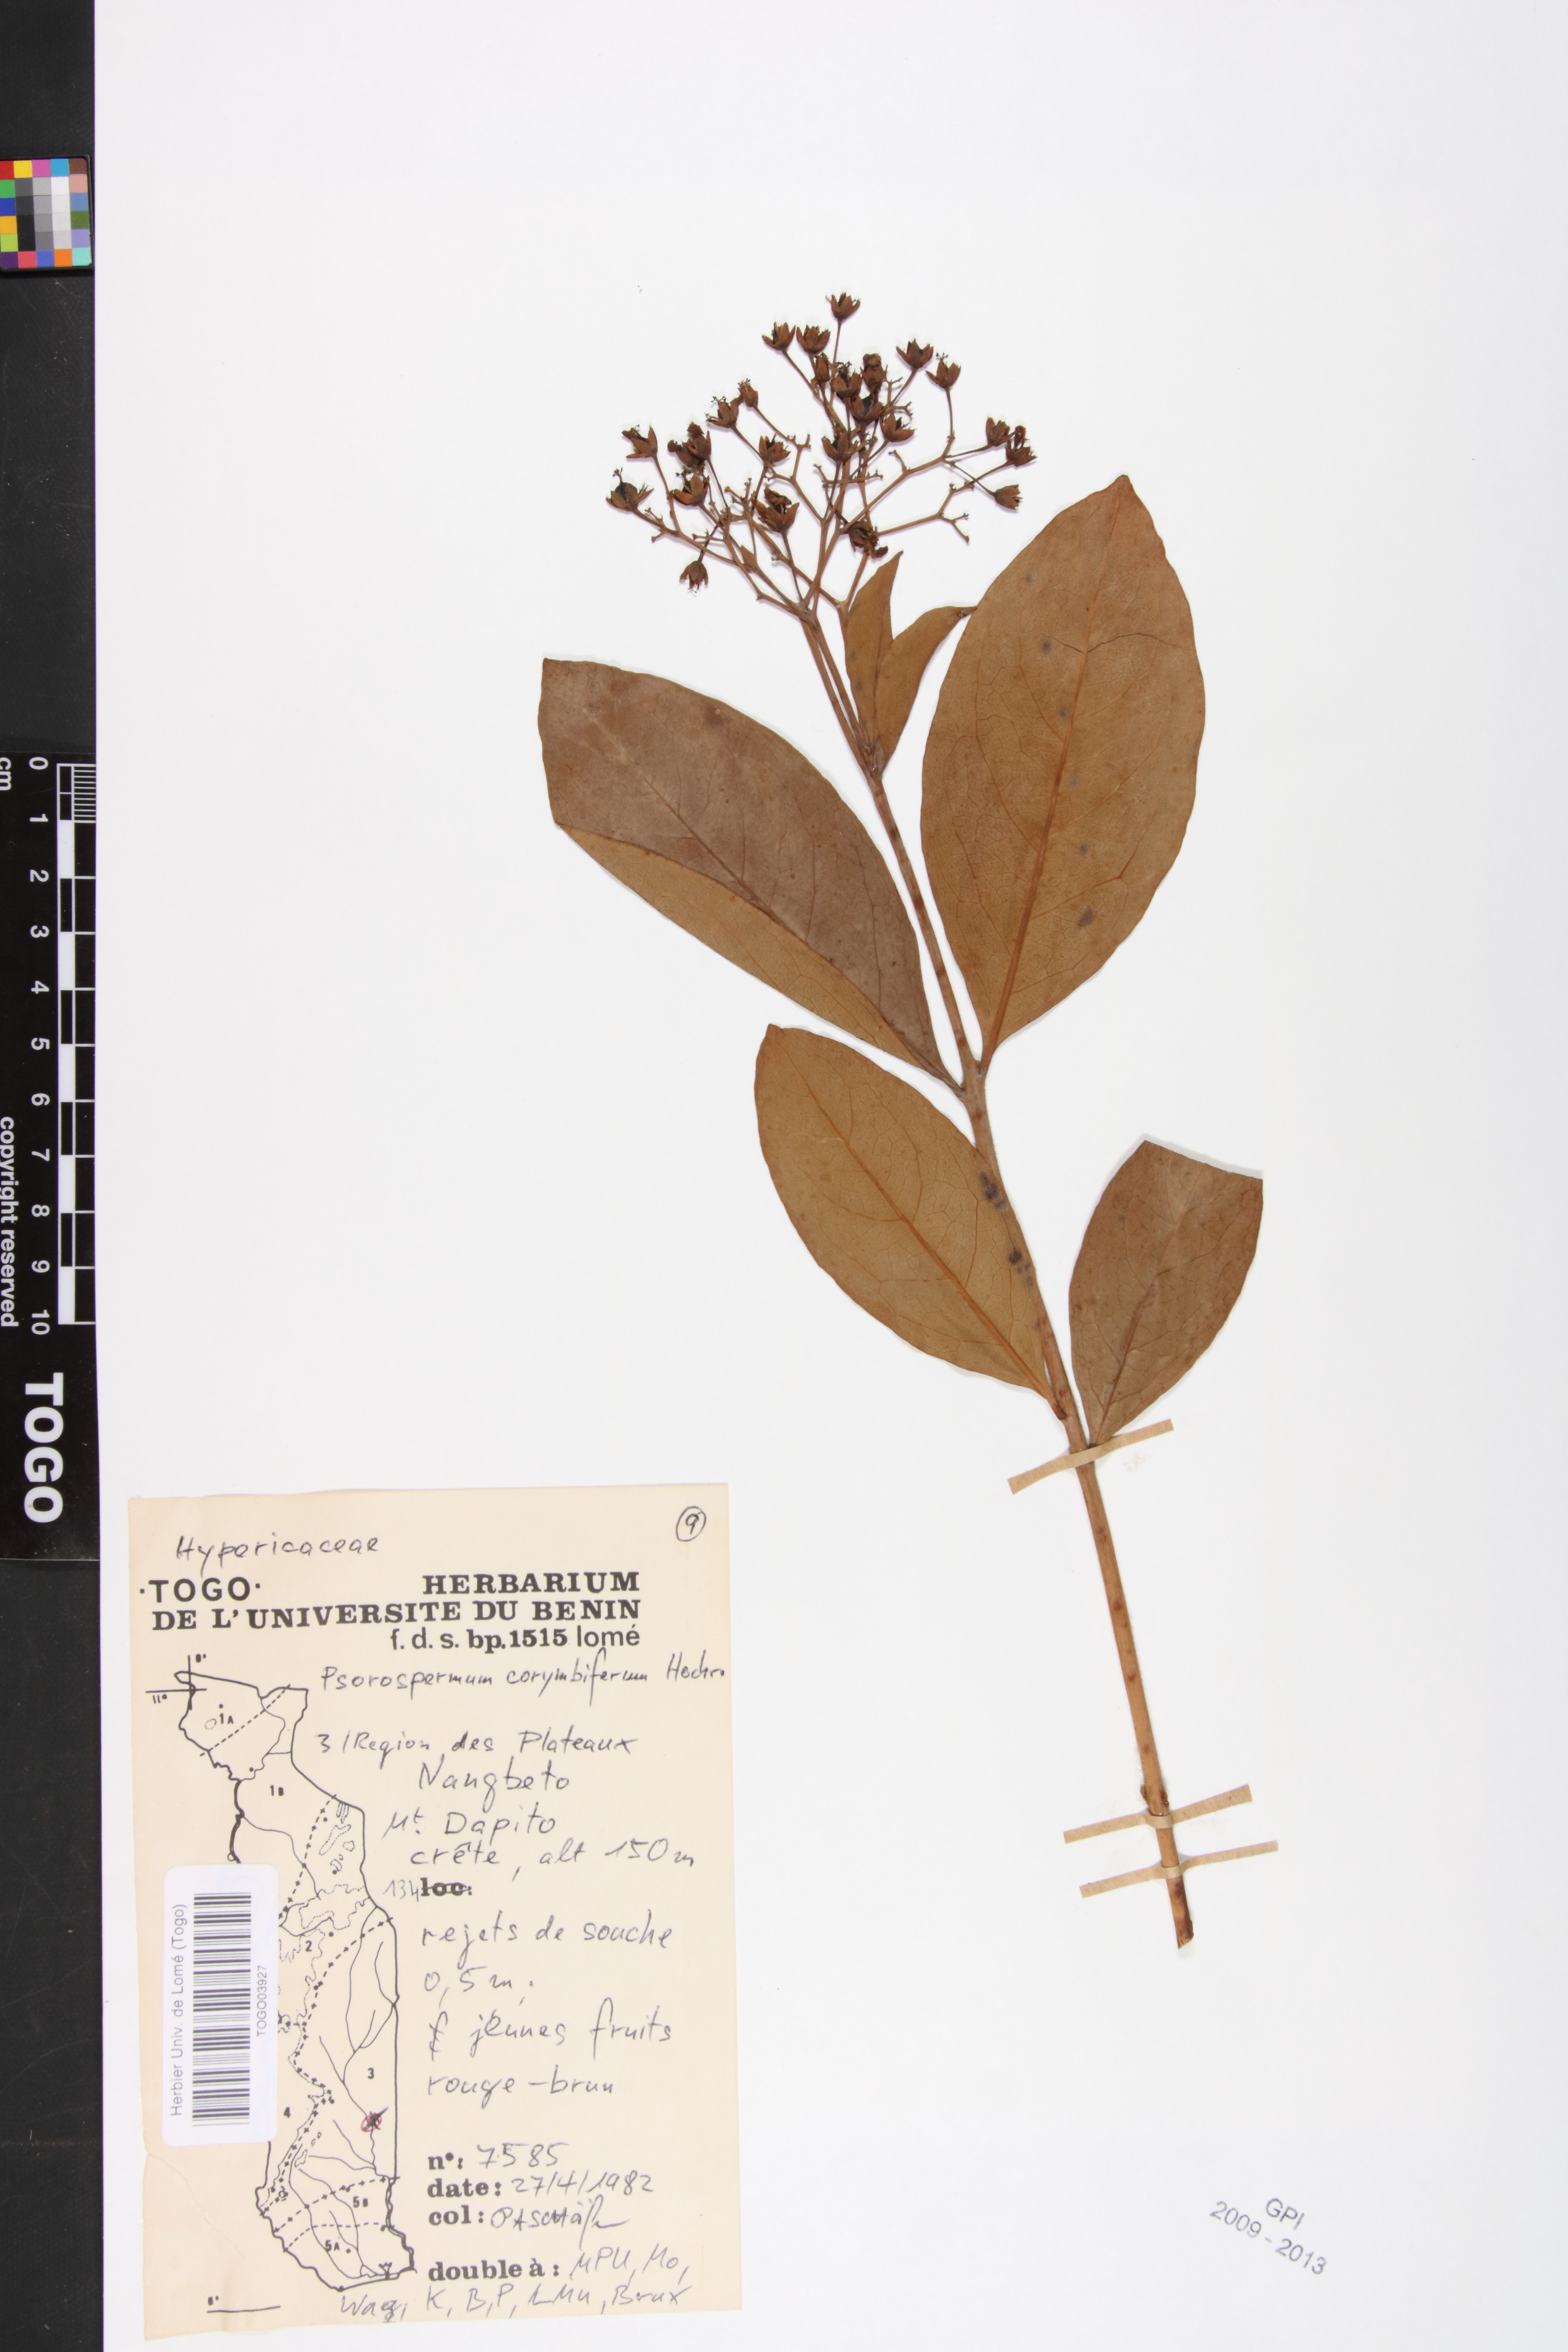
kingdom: Plantae
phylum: Tracheophyta
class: Magnoliopsida
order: Malpighiales
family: Hypericaceae
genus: Psorospermum
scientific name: Psorospermum corymbiferum
